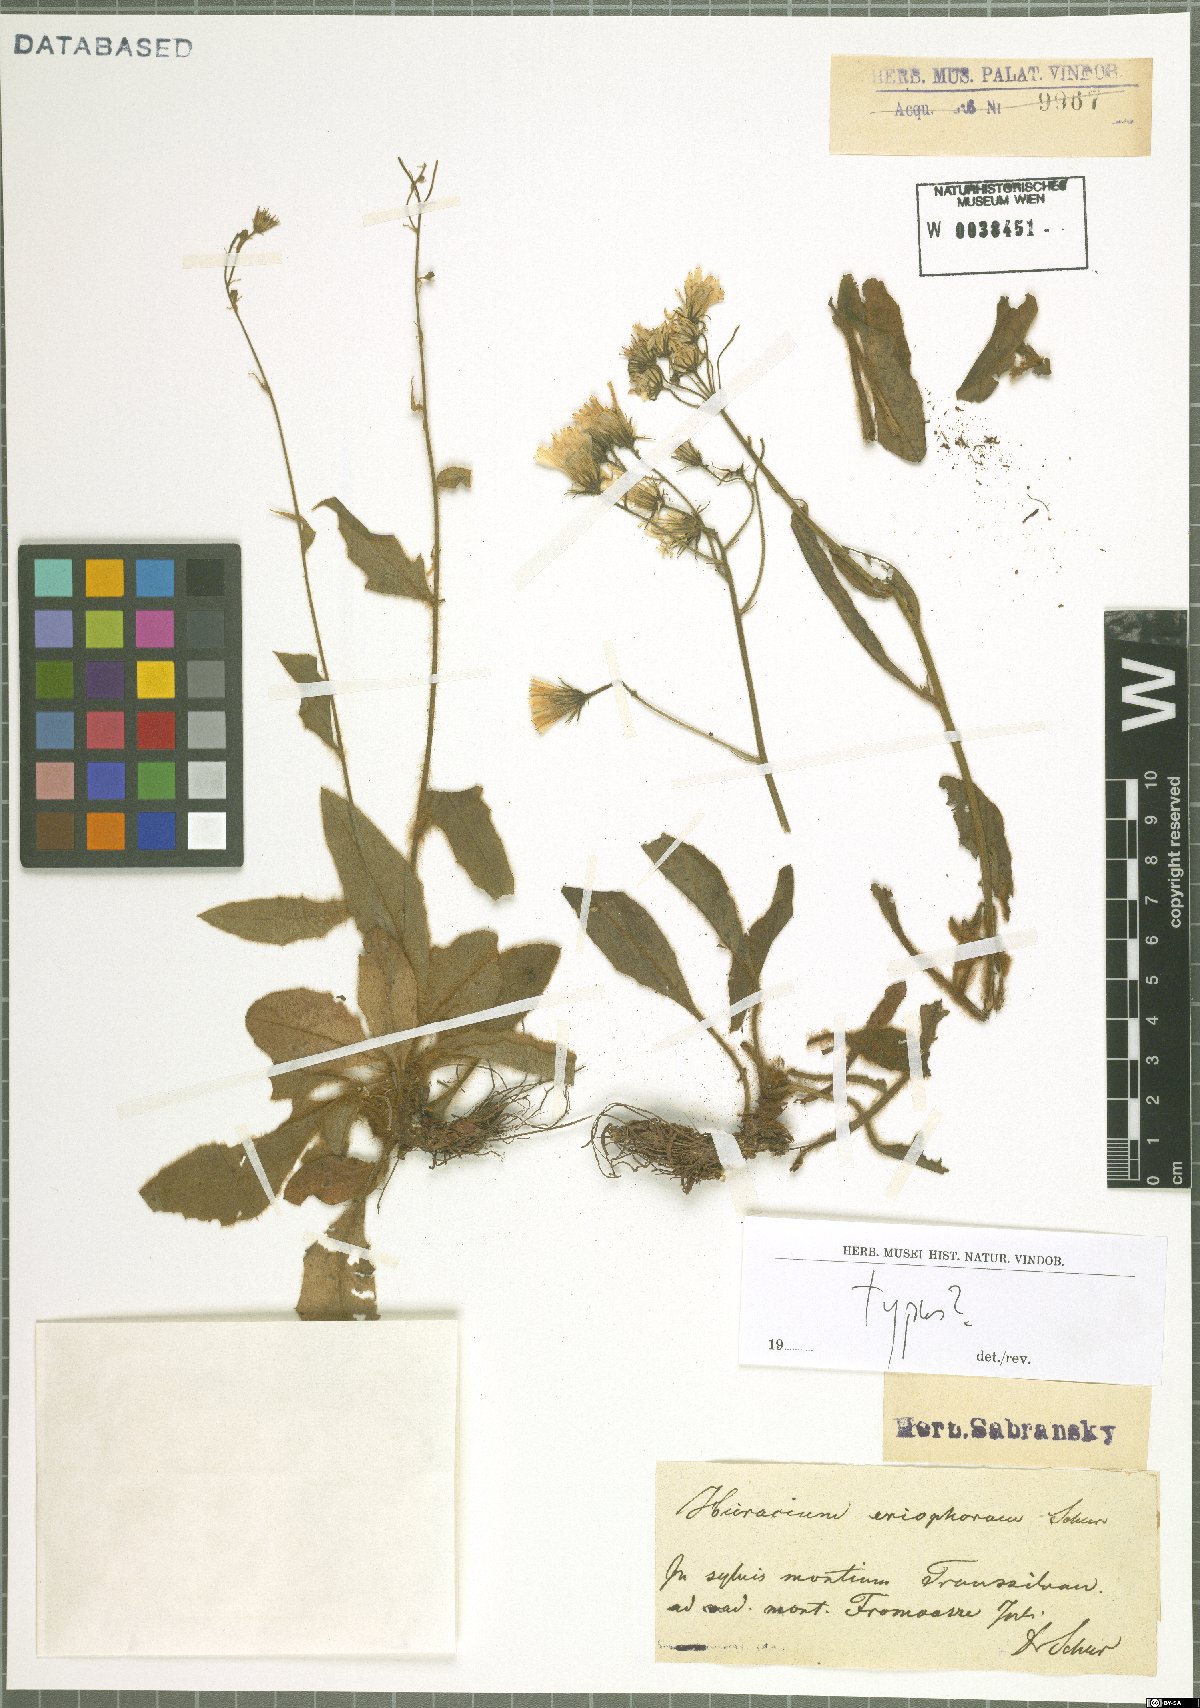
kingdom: Plantae
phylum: Tracheophyta
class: Magnoliopsida
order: Asterales
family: Asteraceae
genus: Hieracium
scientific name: Hieracium transylvanicum
